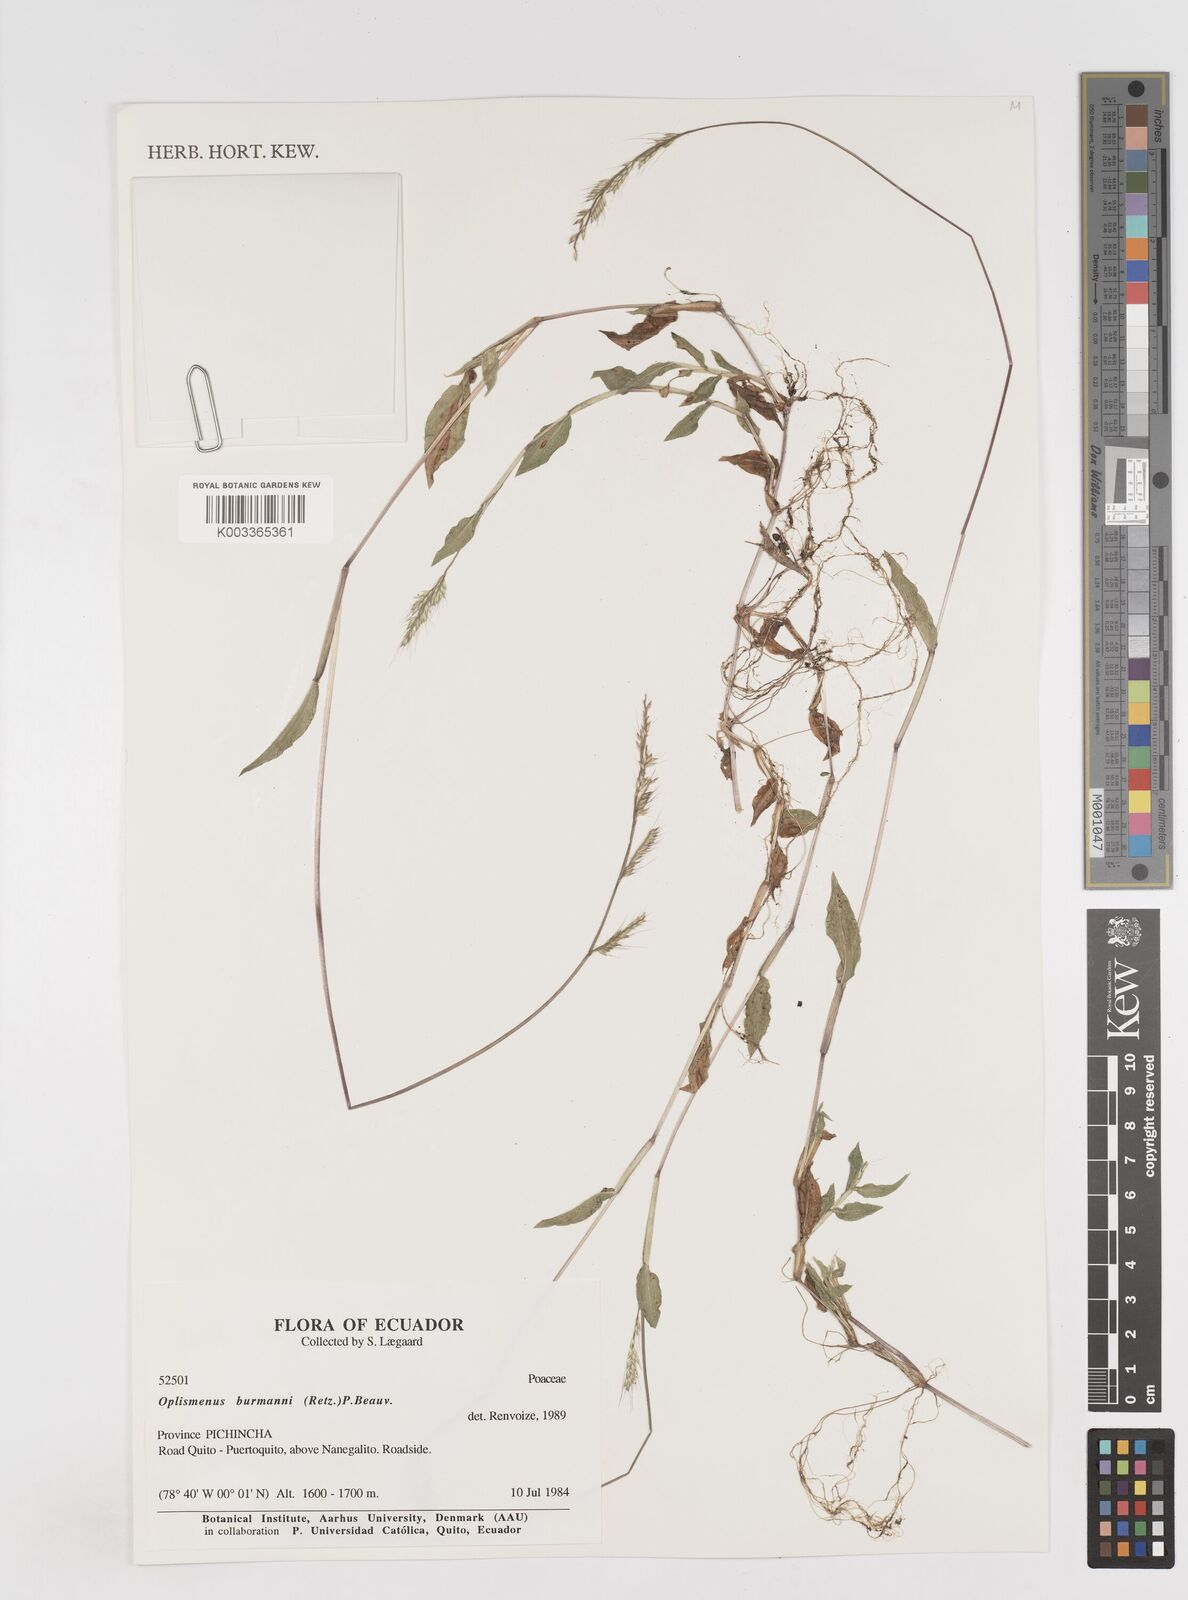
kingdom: Plantae
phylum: Tracheophyta
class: Liliopsida
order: Poales
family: Poaceae
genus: Oplismenus
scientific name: Oplismenus burmanni
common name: Burmann's basketgrass
